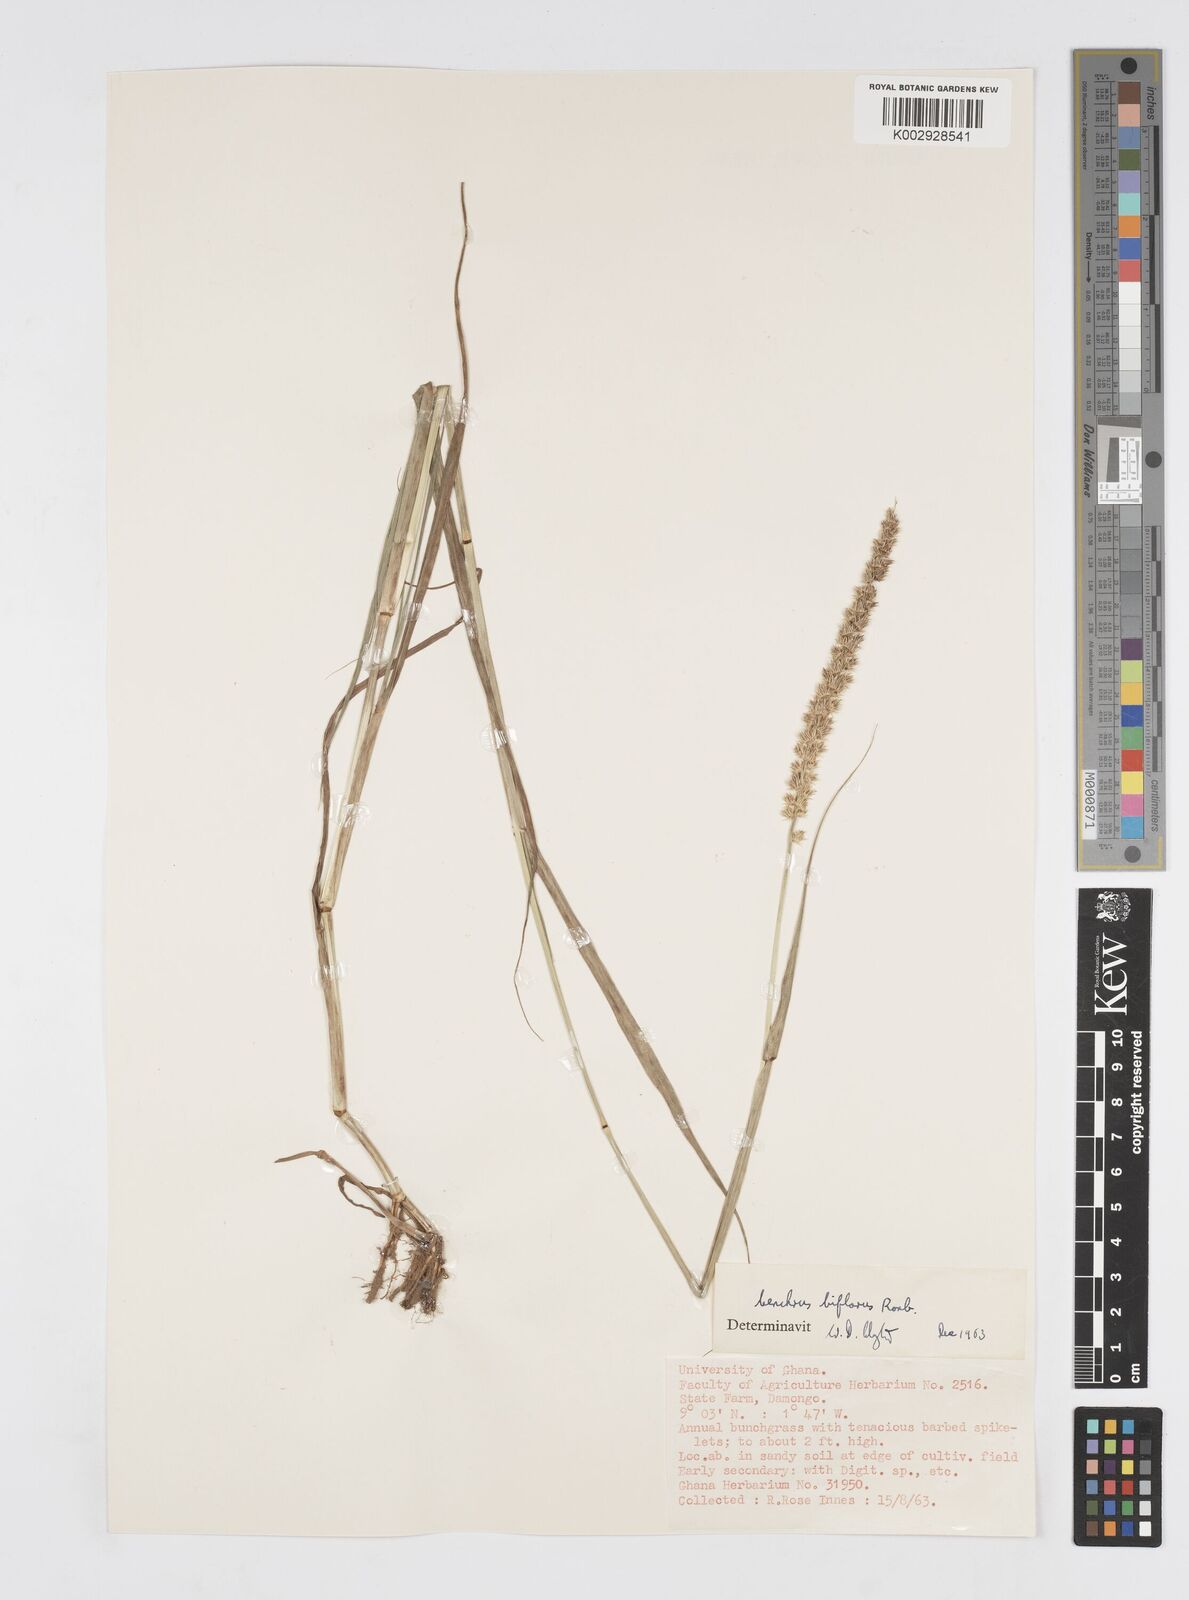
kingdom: Plantae
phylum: Tracheophyta
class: Liliopsida
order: Poales
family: Poaceae
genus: Cenchrus
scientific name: Cenchrus biflorus
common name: Indian sandbur
